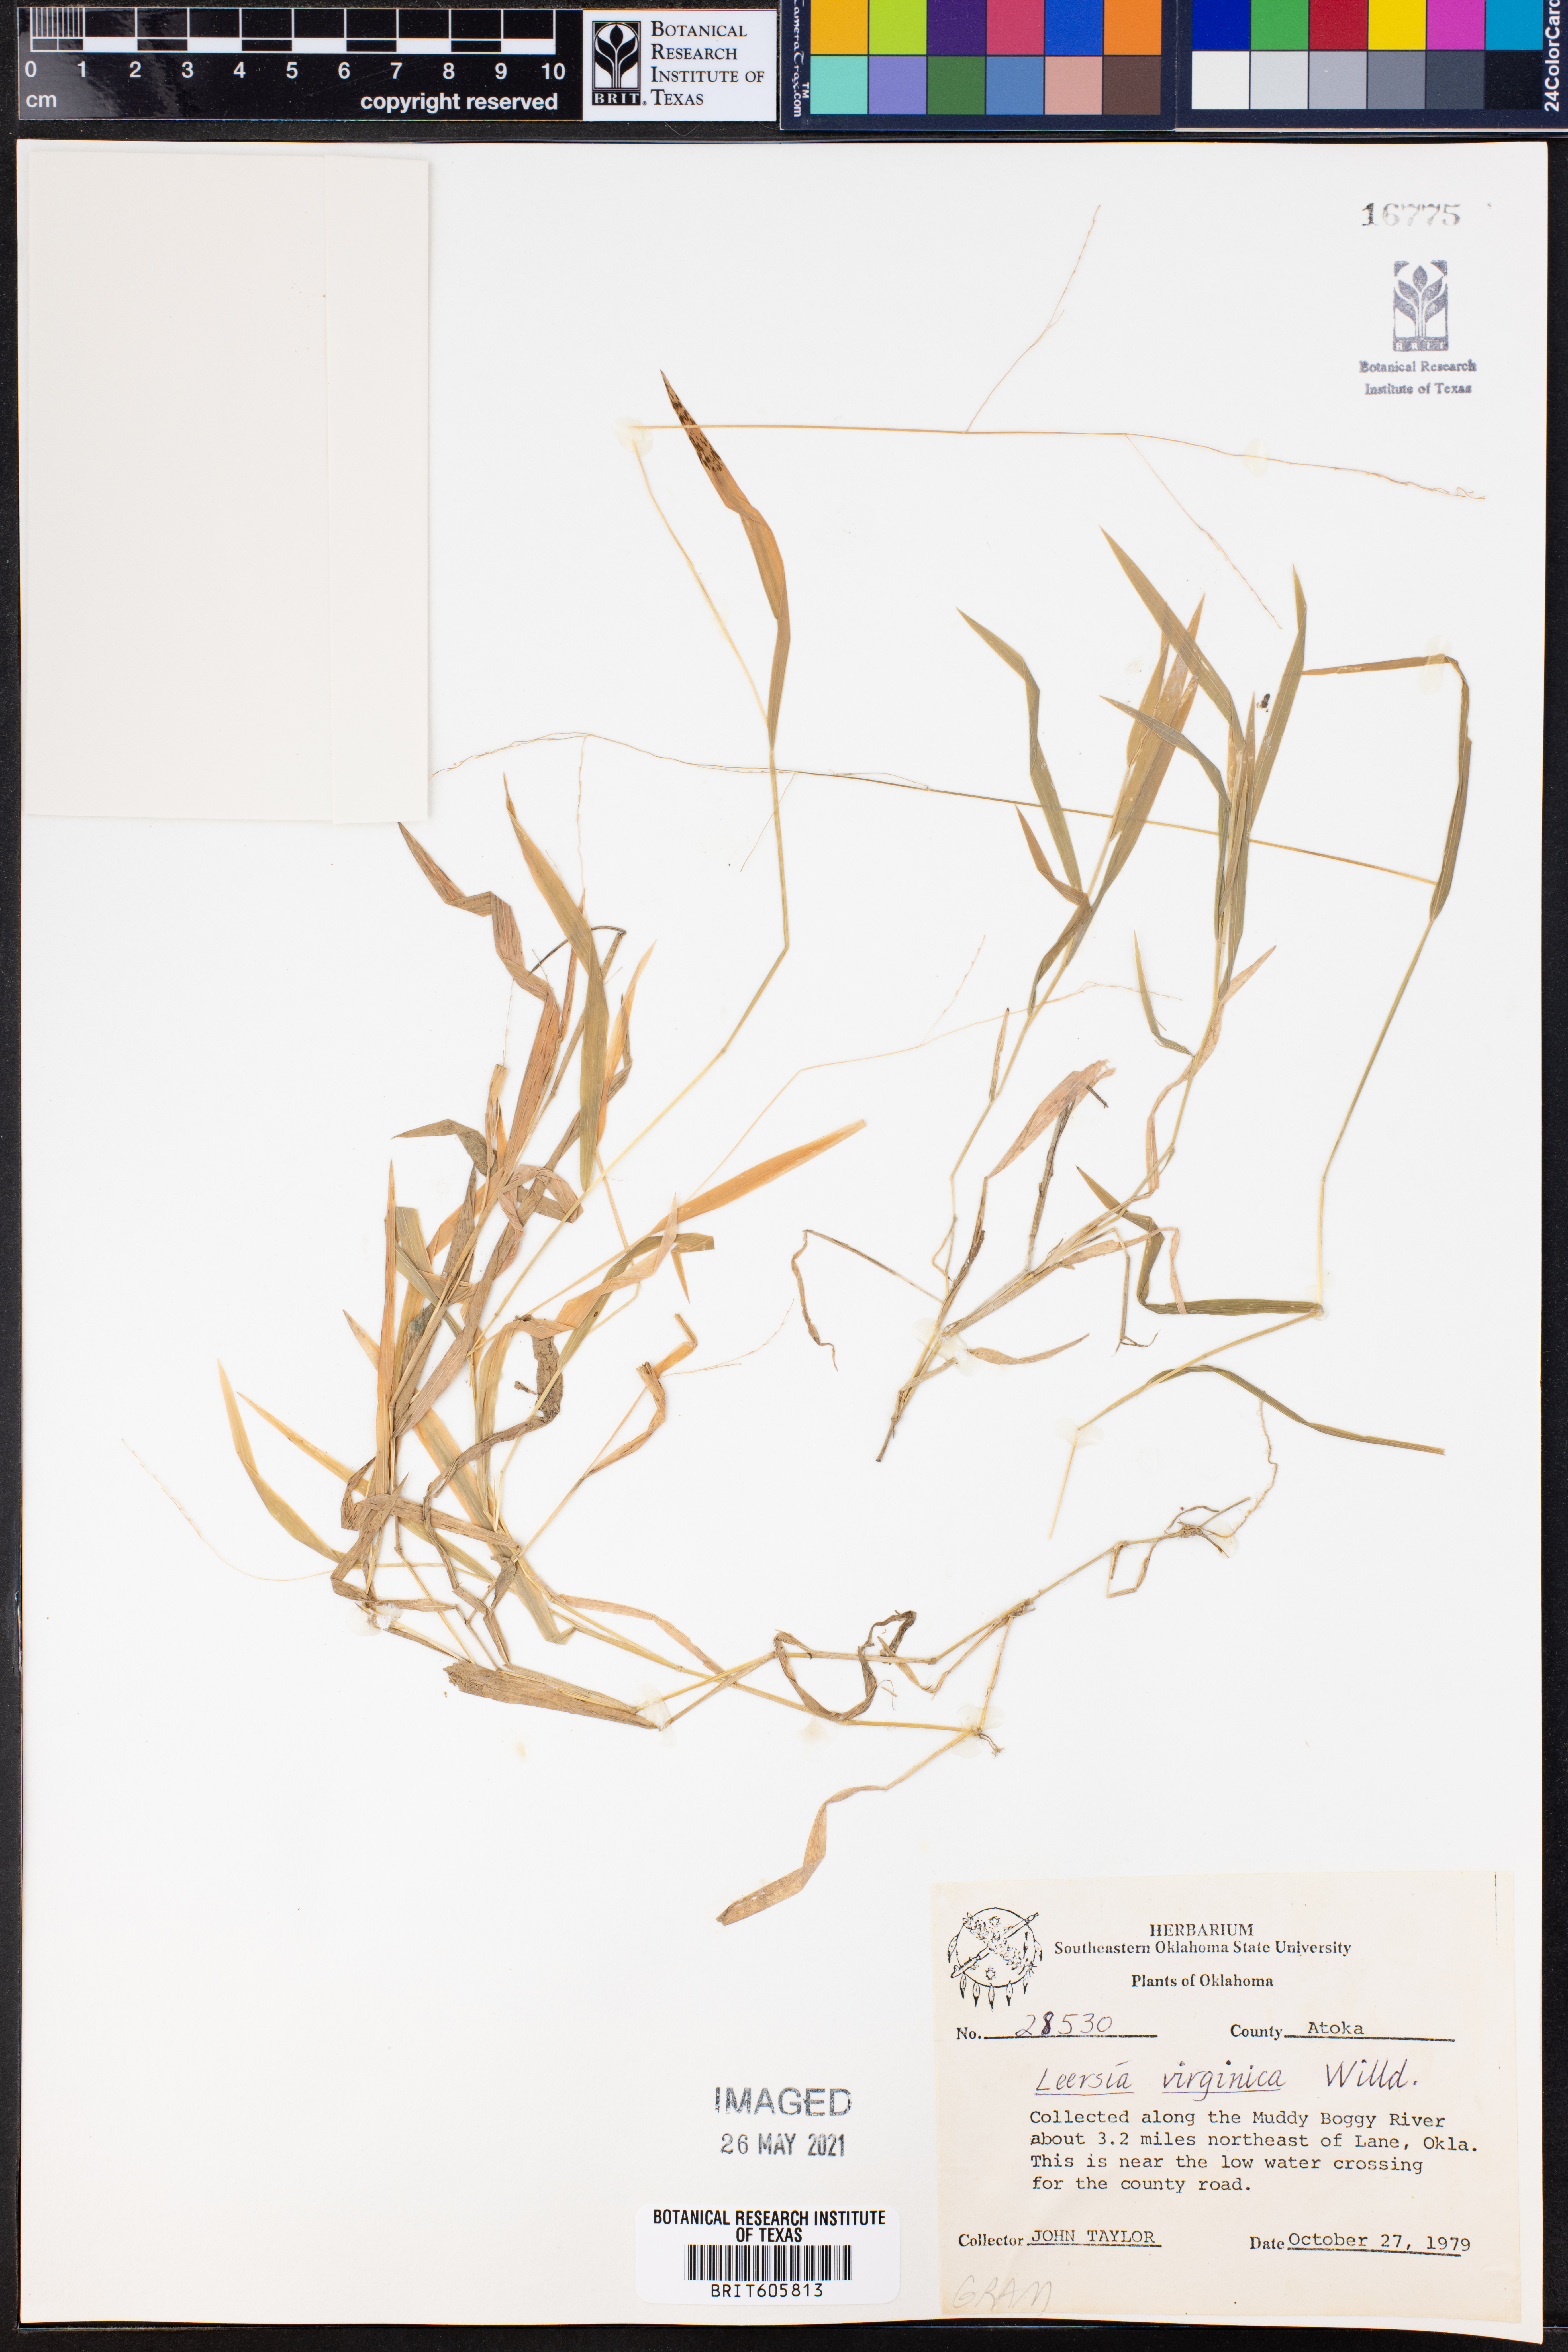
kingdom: Plantae
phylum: Tracheophyta
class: Liliopsida
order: Poales
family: Poaceae
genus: Leersia
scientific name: Leersia virginica
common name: White cutgrass
